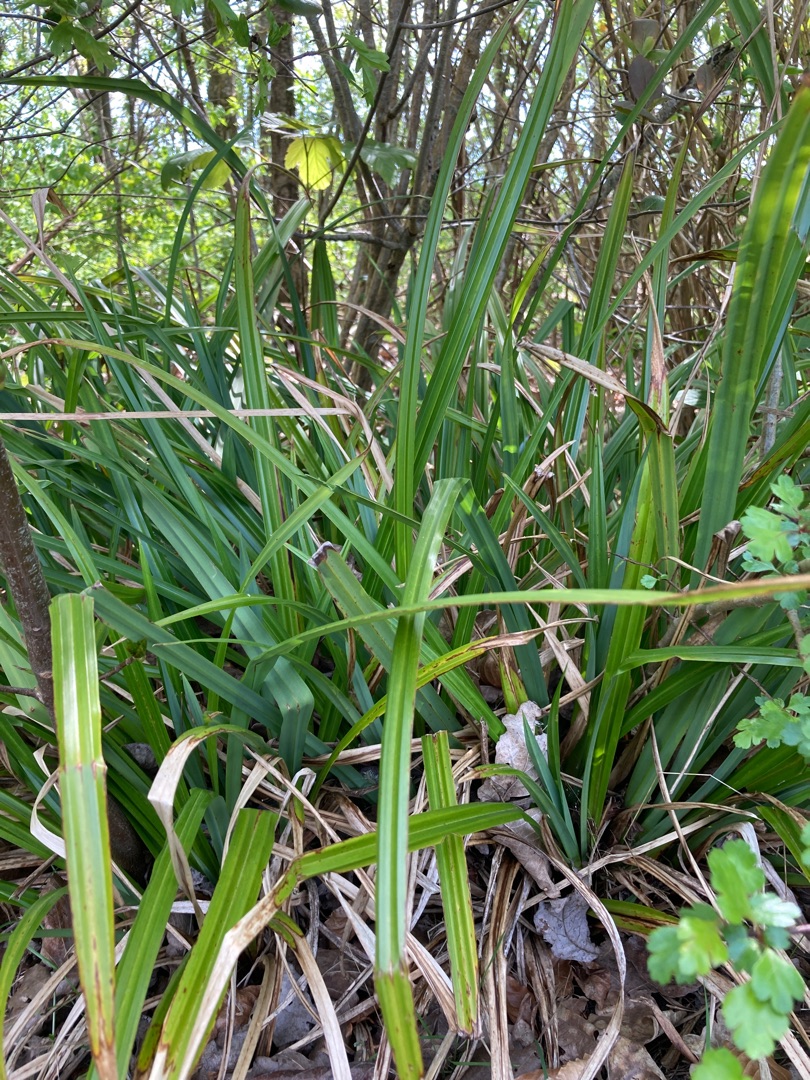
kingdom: Plantae
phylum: Tracheophyta
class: Liliopsida
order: Poales
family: Cyperaceae
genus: Carex
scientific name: Carex pendula
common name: Kæmpe-star
